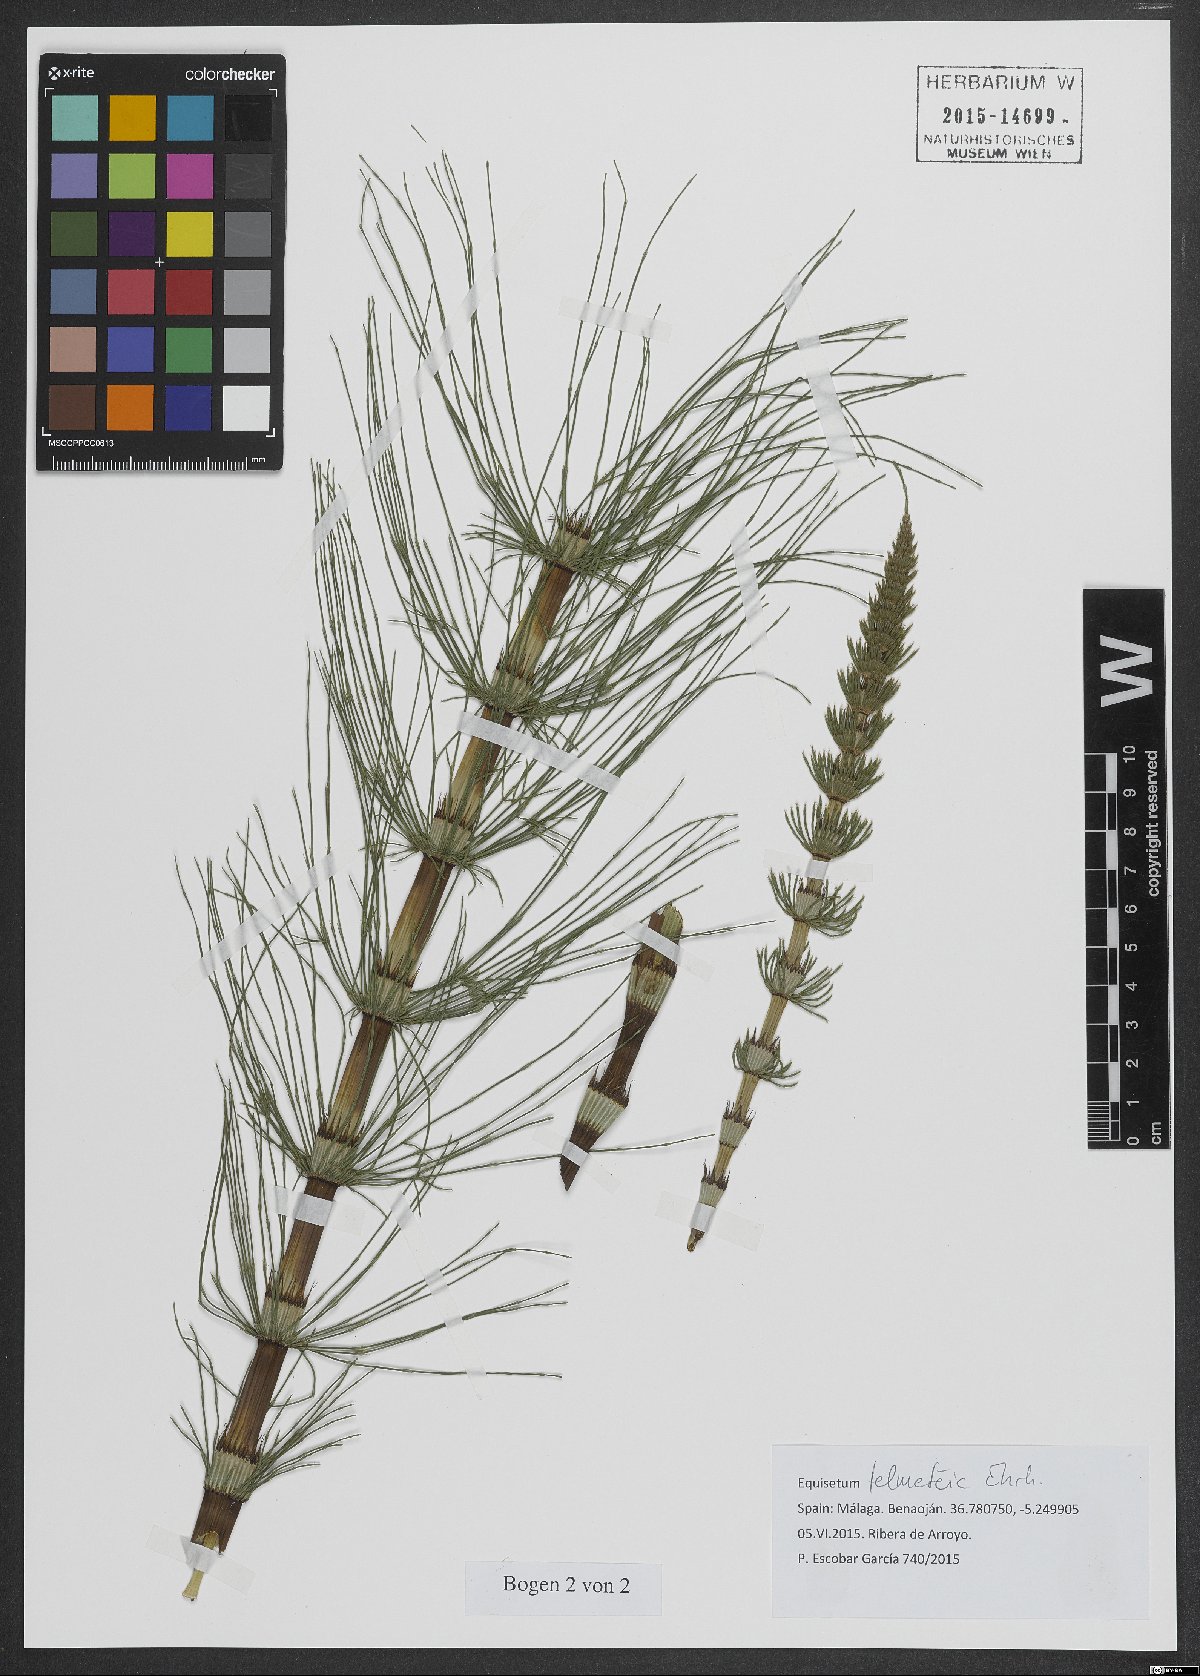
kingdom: Plantae
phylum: Tracheophyta
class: Polypodiopsida
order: Equisetales
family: Equisetaceae
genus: Equisetum
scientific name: Equisetum telmateia
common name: Great horsetail
